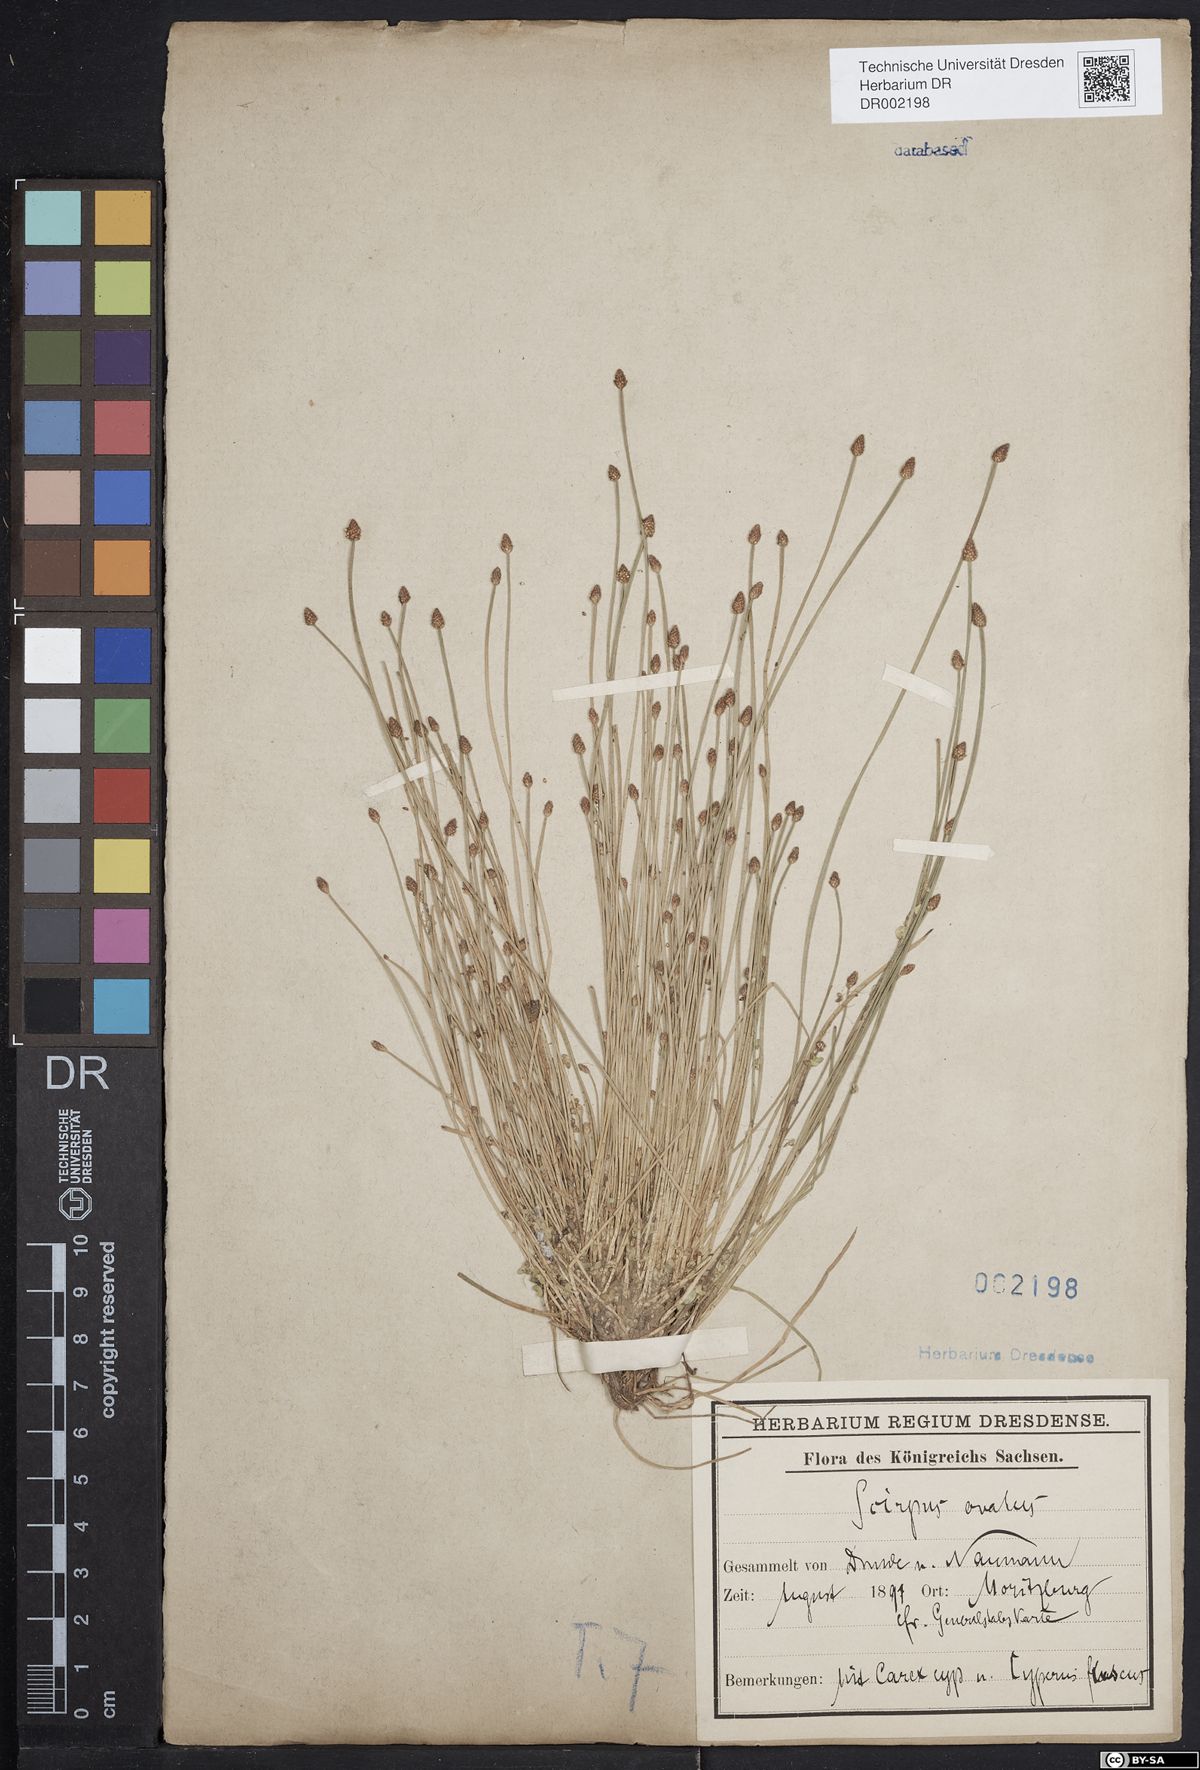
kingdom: Plantae
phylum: Tracheophyta
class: Liliopsida
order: Poales
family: Cyperaceae
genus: Eleocharis
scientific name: Eleocharis ovata
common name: Oval spike-rush
